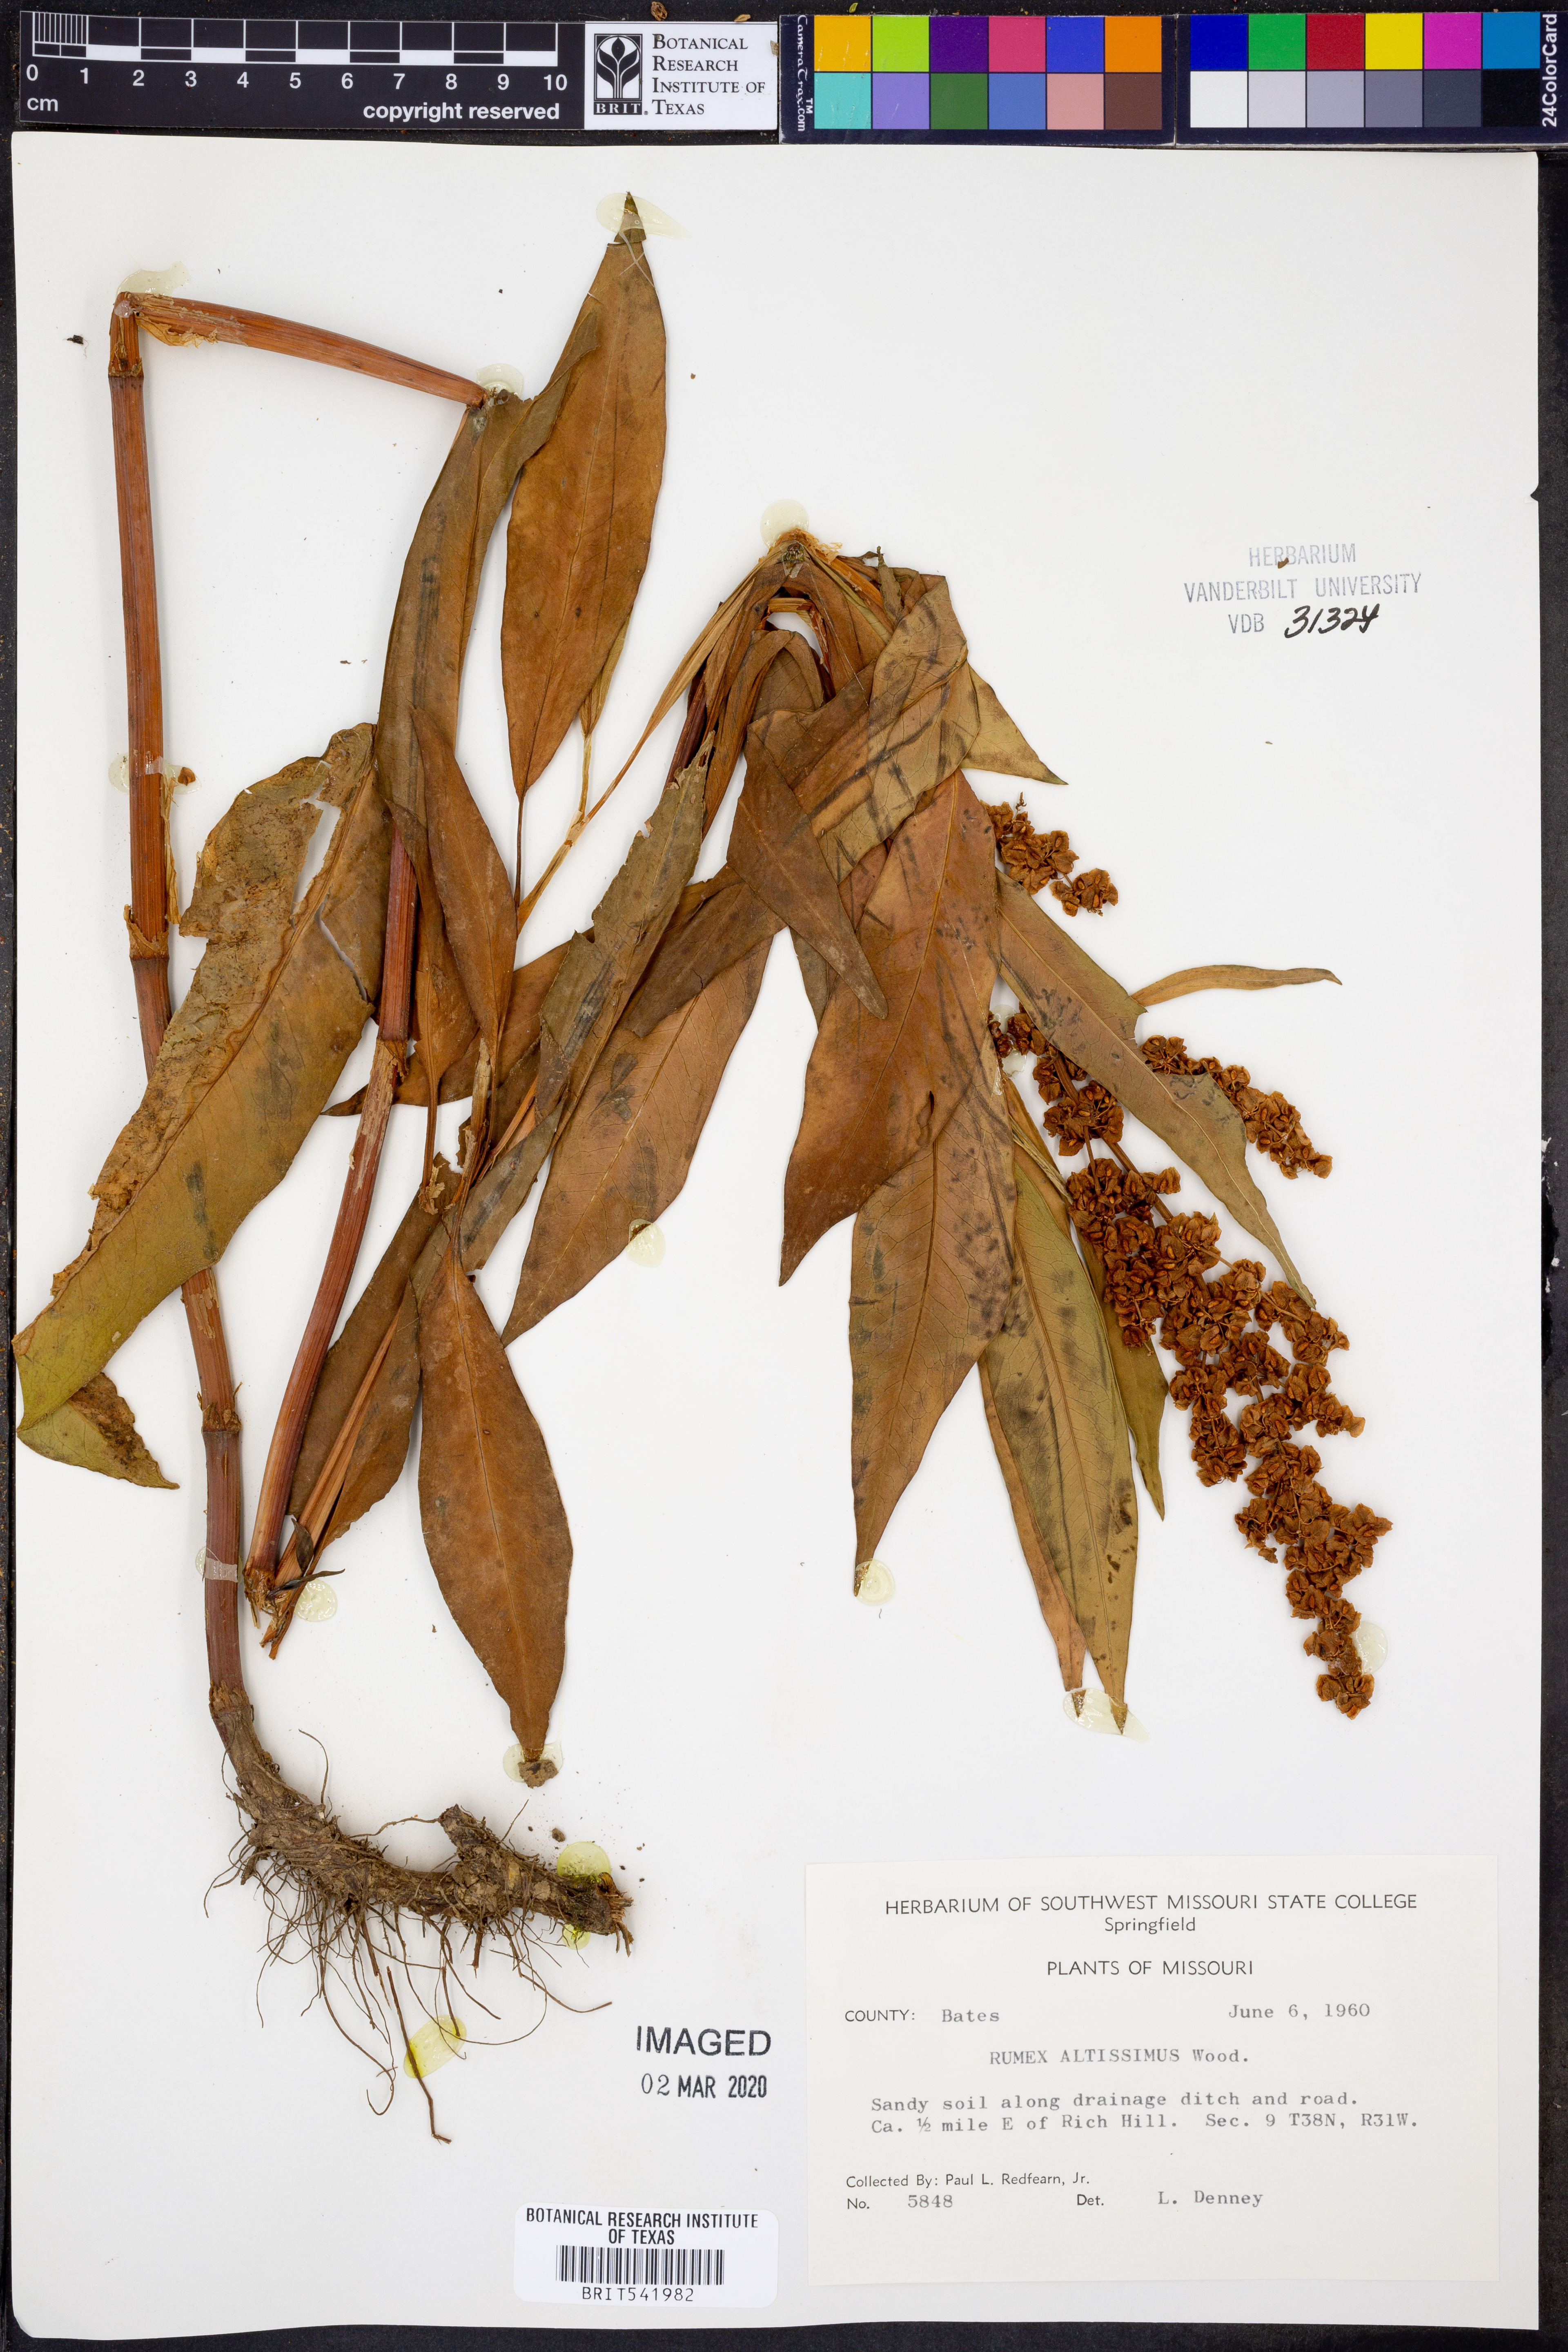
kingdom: Plantae
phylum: Tracheophyta
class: Magnoliopsida
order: Caryophyllales
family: Polygonaceae
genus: Rumex
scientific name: Rumex altissimus
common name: Smooth dock
